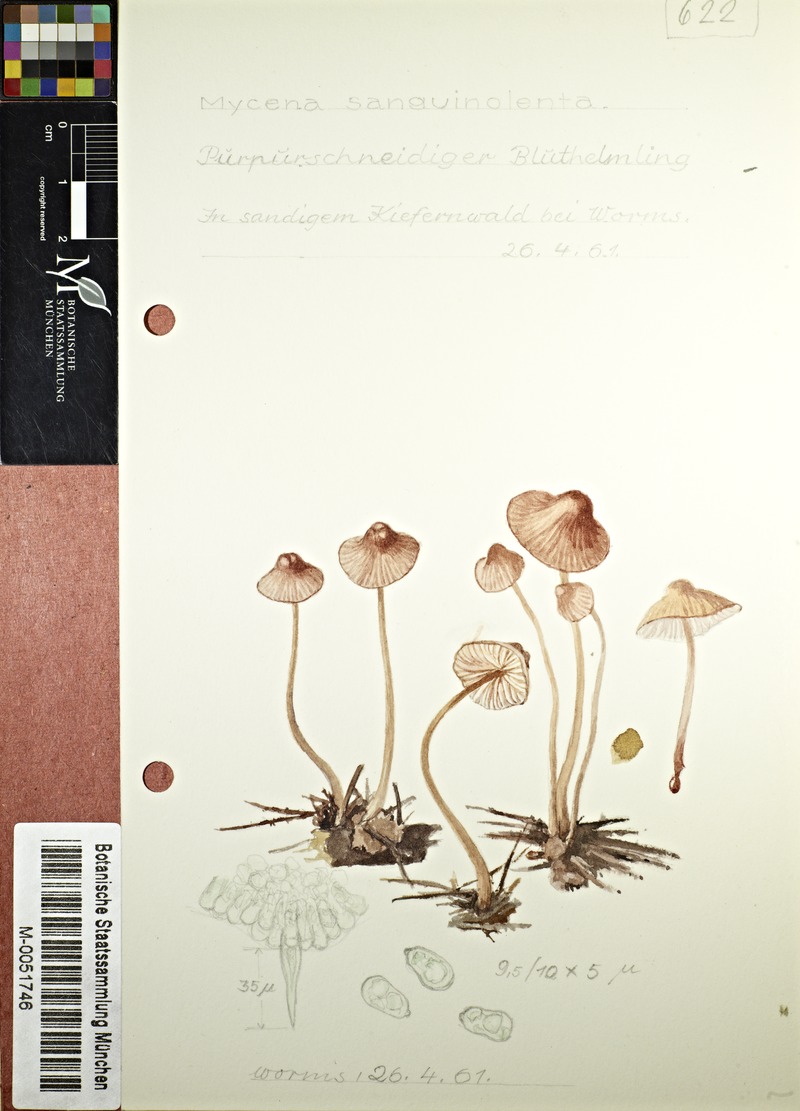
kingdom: Fungi
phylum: Basidiomycota
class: Agaricomycetes
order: Agaricales
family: Mycenaceae
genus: Mycena
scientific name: Mycena sanguinolenta
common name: Bleeding bonnet
